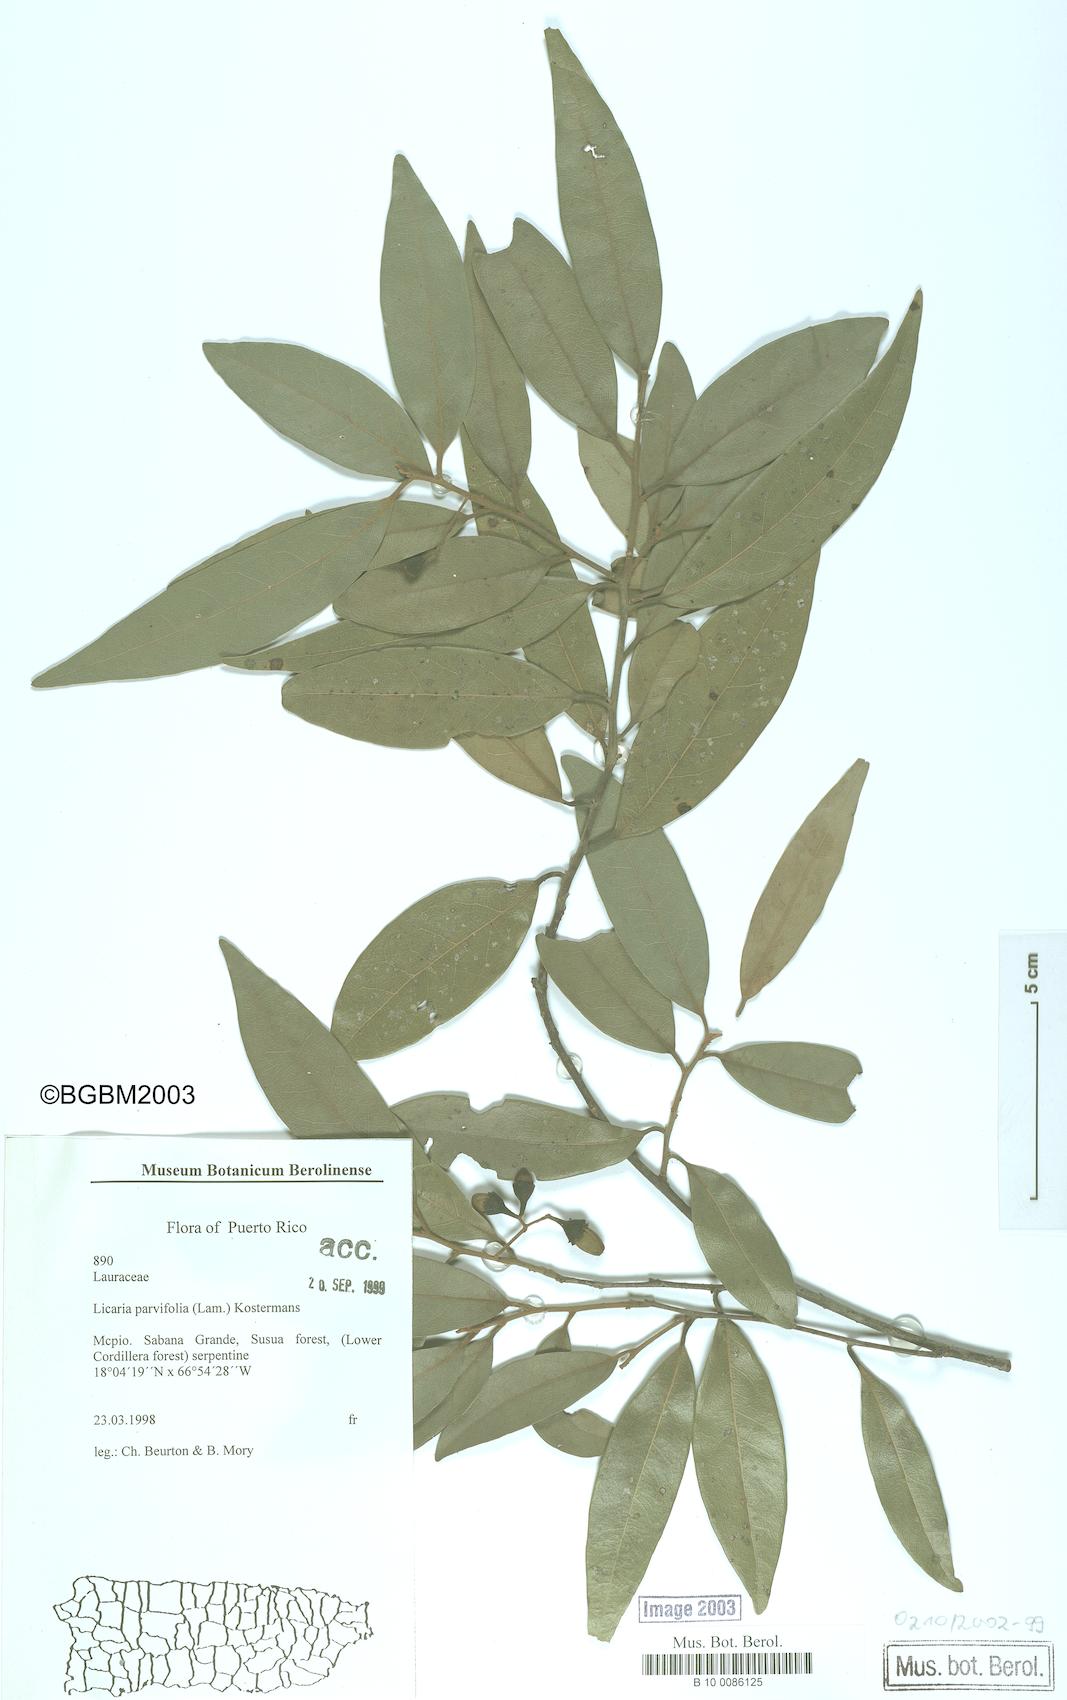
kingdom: Plantae
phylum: Tracheophyta
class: Magnoliopsida
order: Laurales
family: Lauraceae
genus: Licaria
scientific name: Licaria parvifolia
